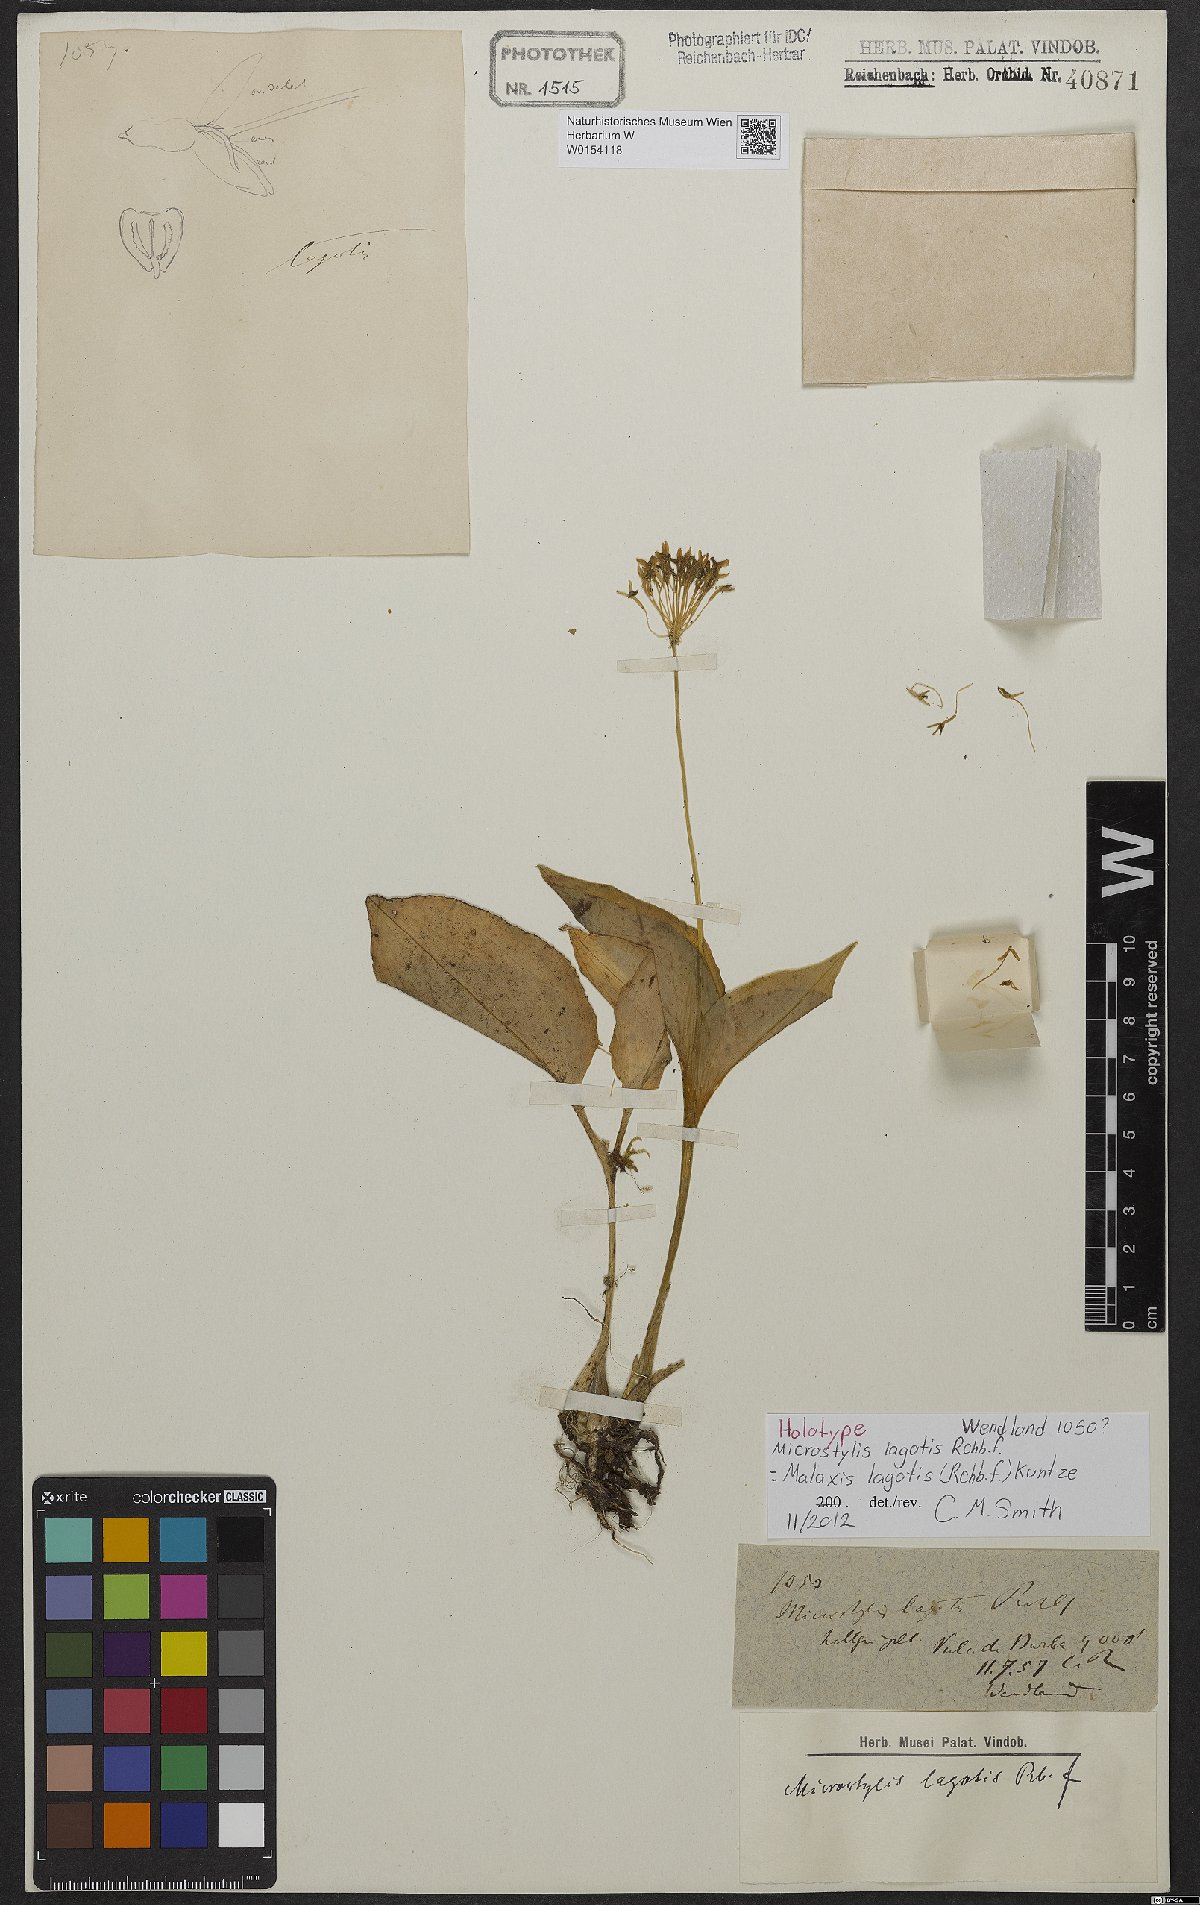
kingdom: Plantae
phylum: Tracheophyta
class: Liliopsida
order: Asparagales
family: Orchidaceae
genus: Malaxis
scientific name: Malaxis lagotis
